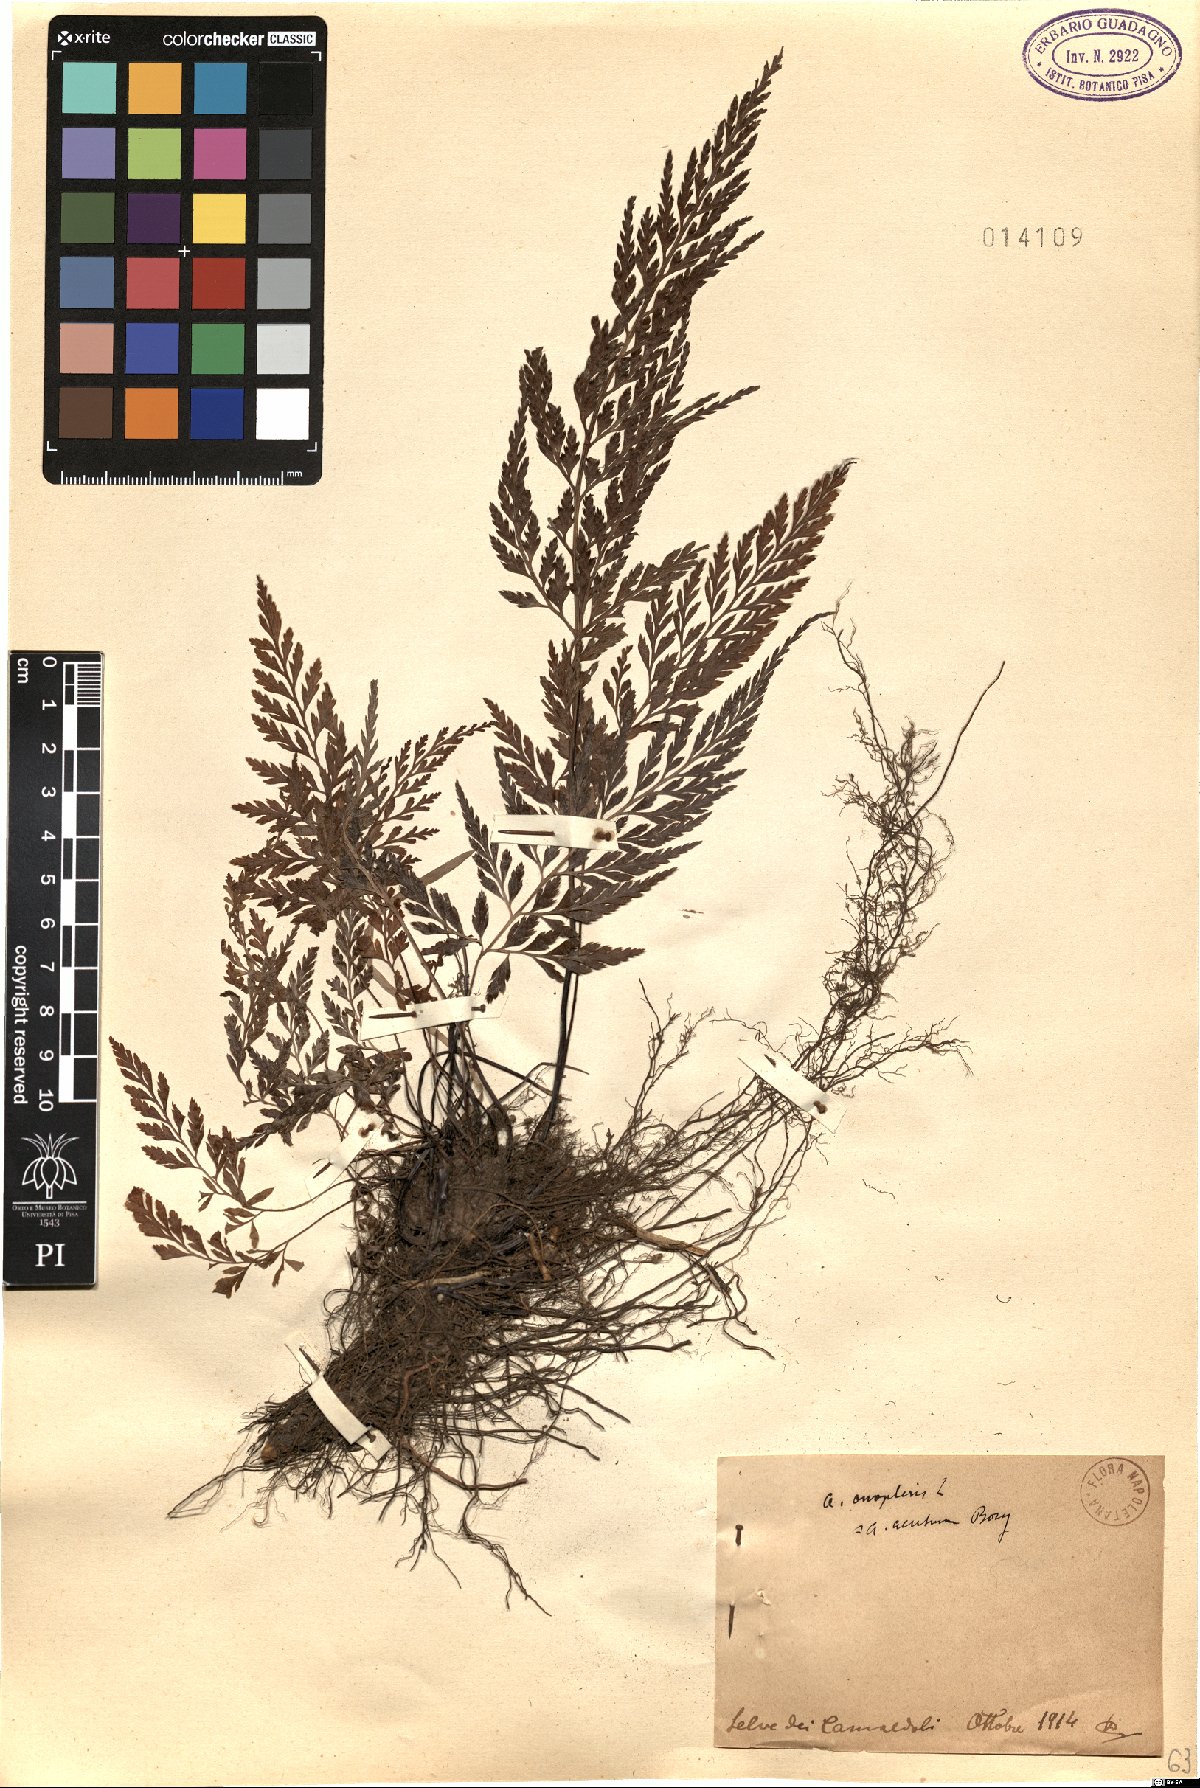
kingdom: Plantae
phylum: Tracheophyta
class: Polypodiopsida
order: Polypodiales
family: Aspleniaceae
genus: Asplenium
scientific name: Asplenium onopteris
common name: Irish spleenwort
